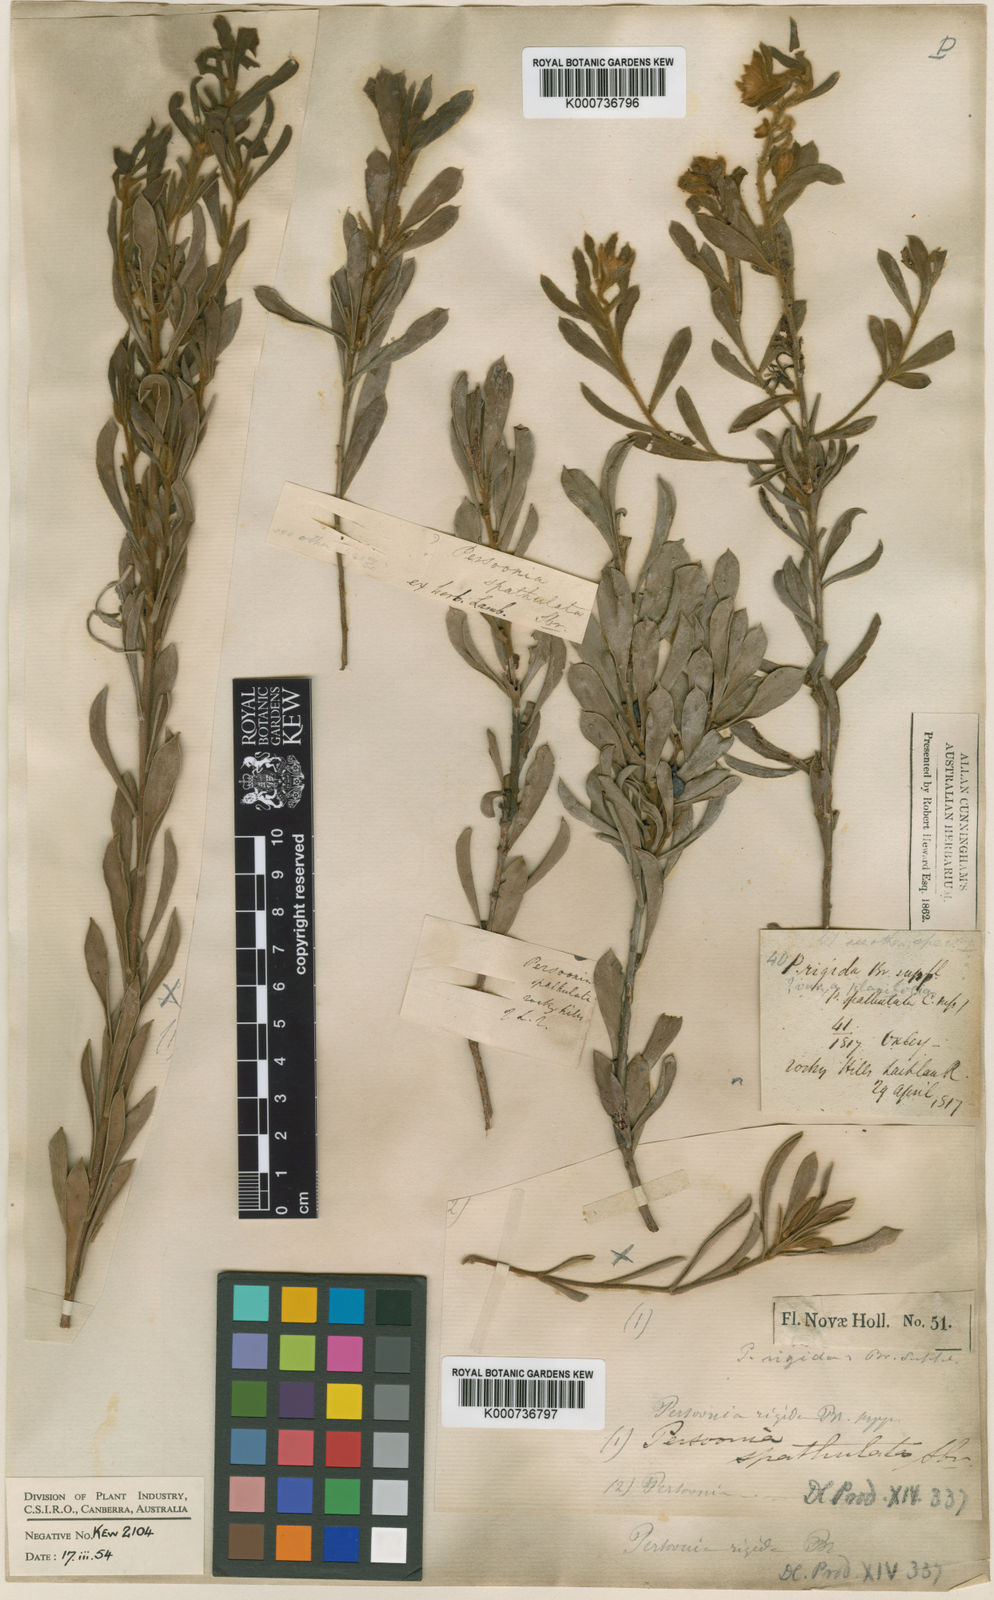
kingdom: Plantae
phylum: Tracheophyta
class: Magnoliopsida
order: Proteales
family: Proteaceae
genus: Persoonia
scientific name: Persoonia rigida
